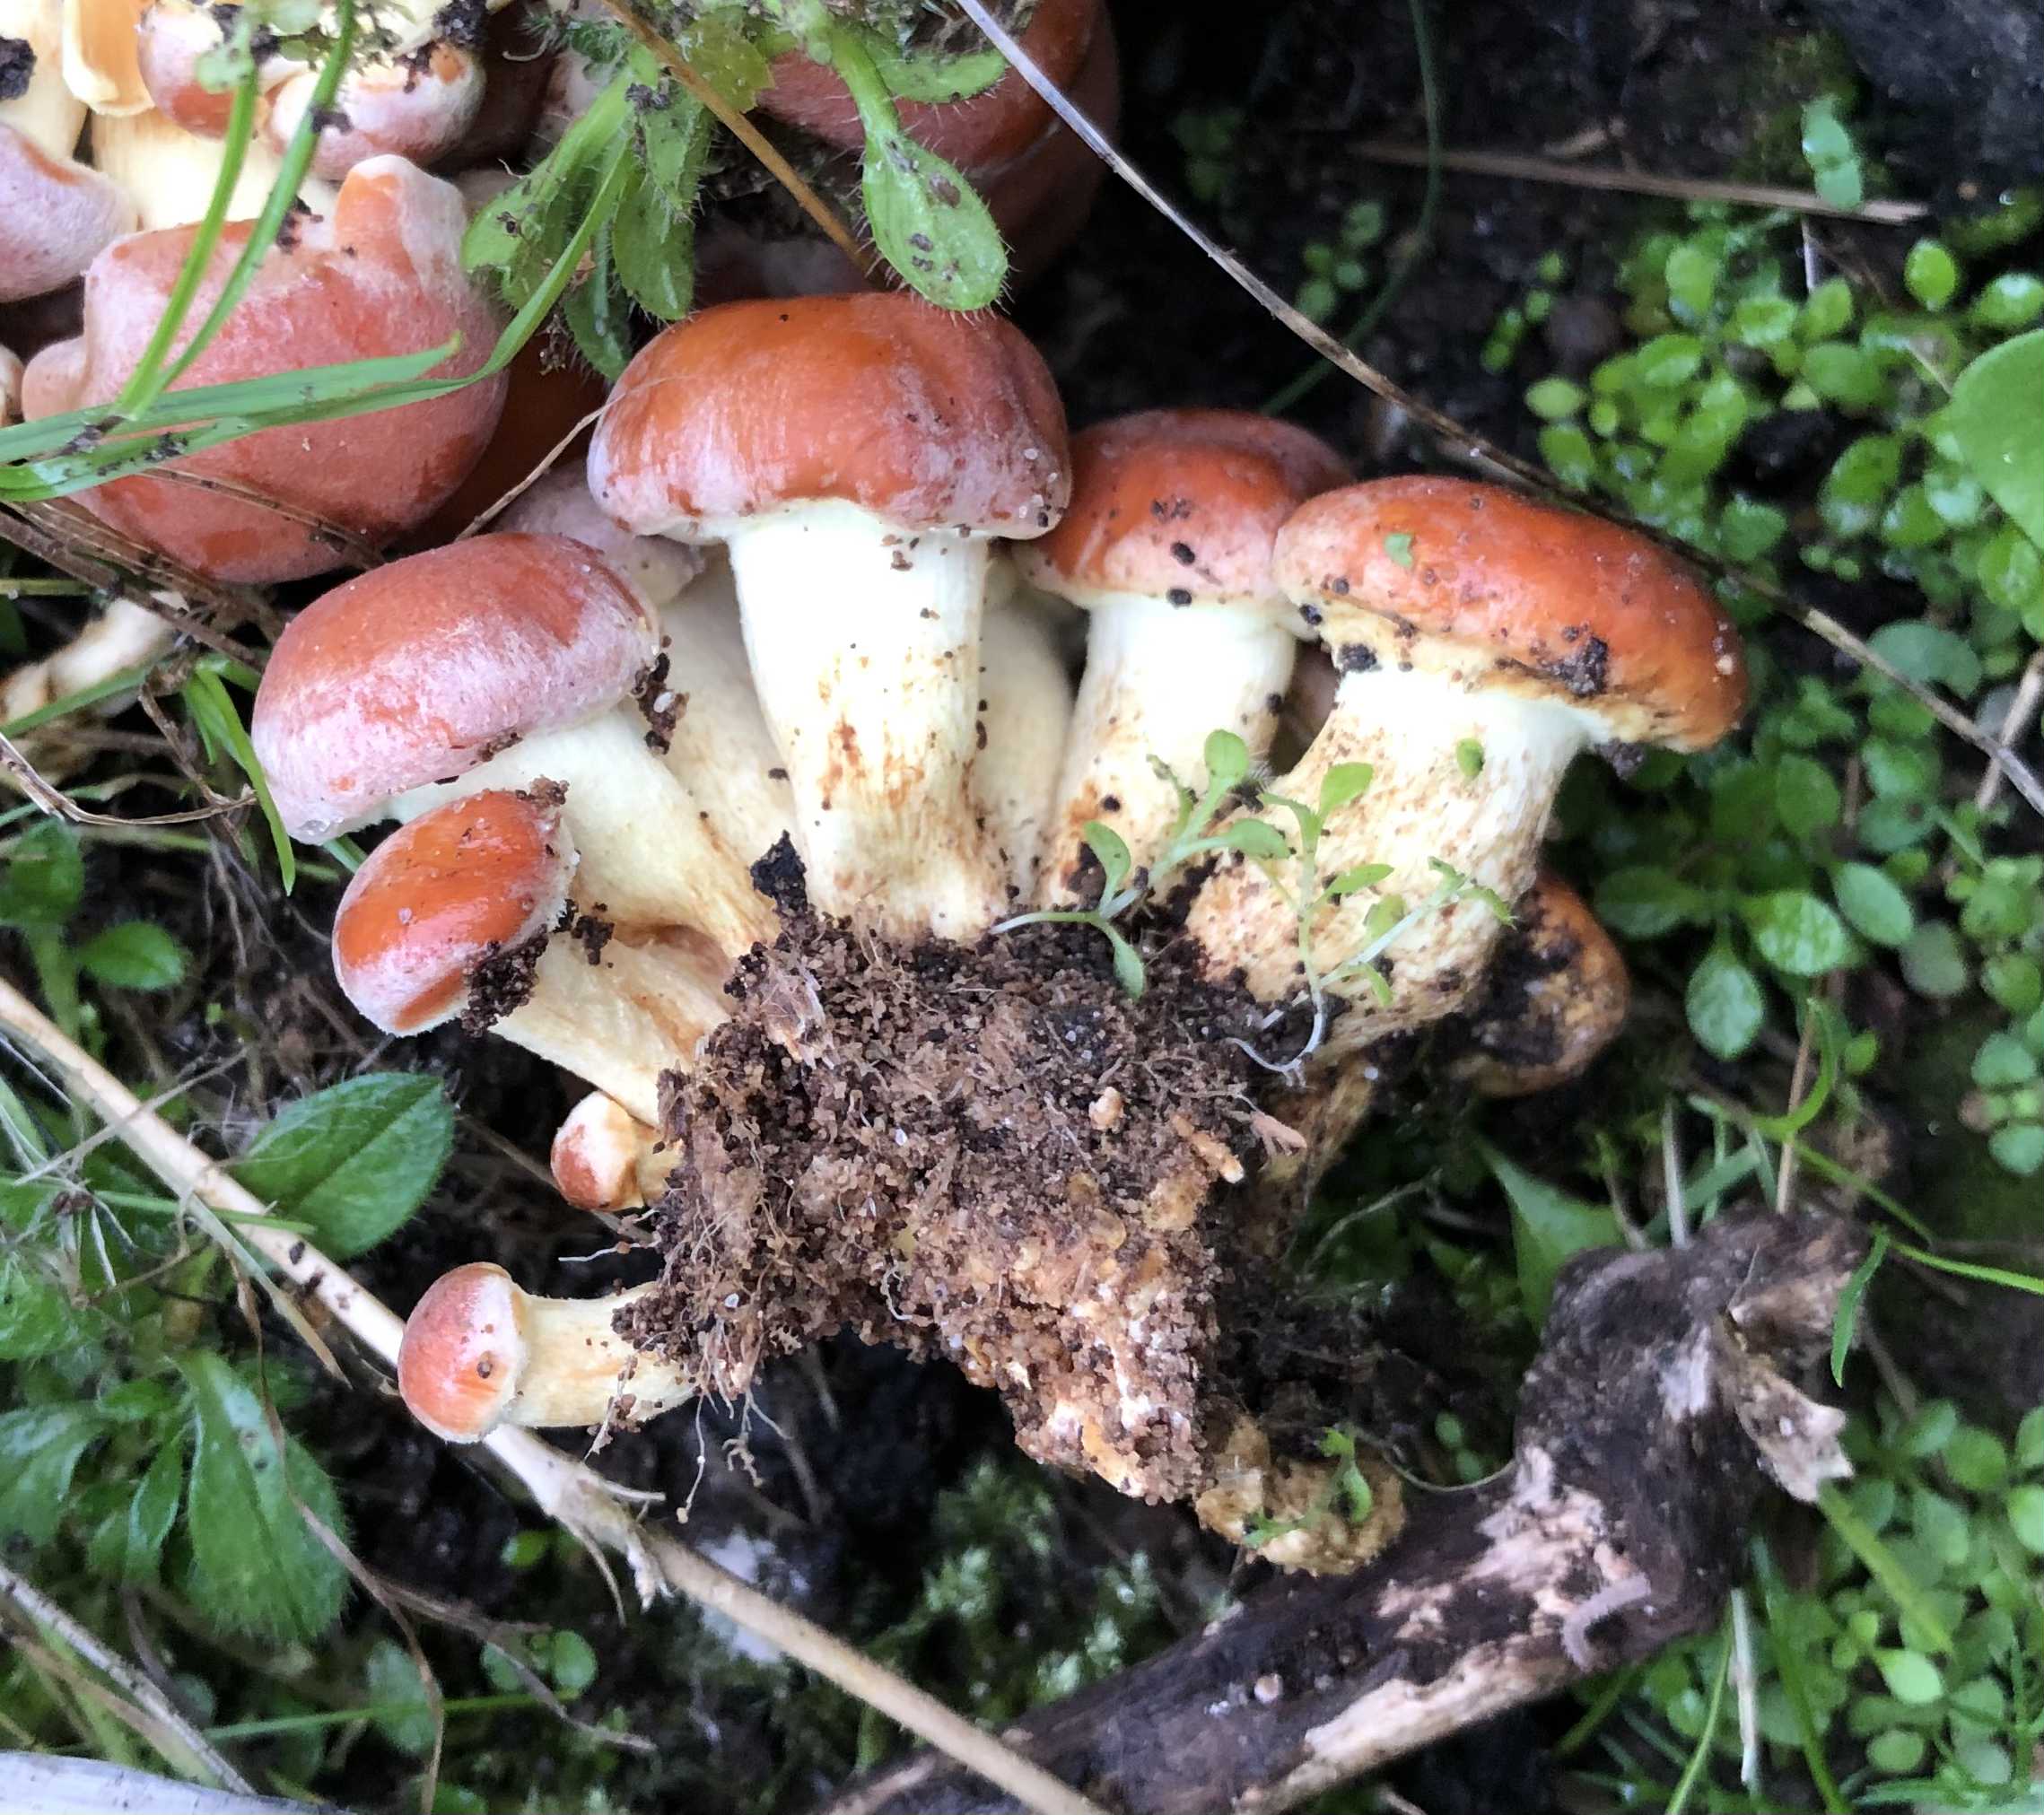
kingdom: Fungi
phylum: Basidiomycota
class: Agaricomycetes
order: Agaricales
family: Strophariaceae
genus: Hypholoma
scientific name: Hypholoma lateritium
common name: teglrød svovlhat
